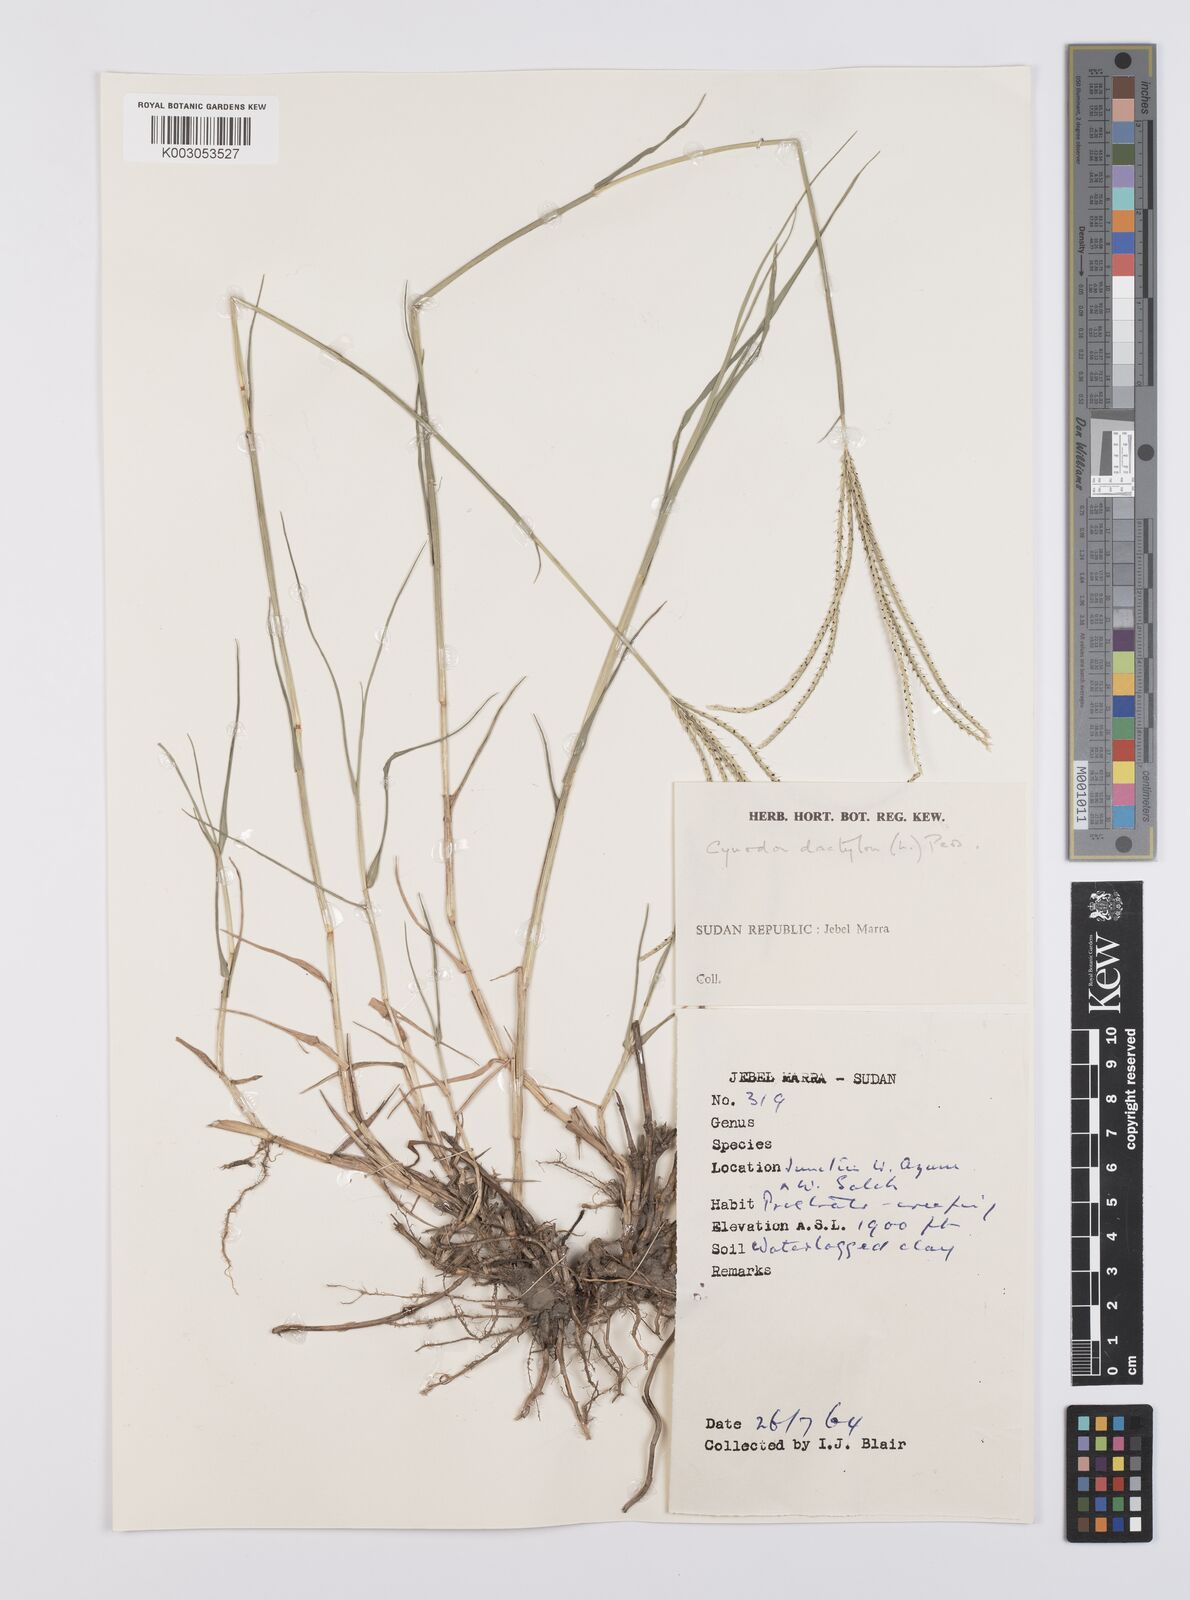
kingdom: Plantae
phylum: Tracheophyta
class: Liliopsida
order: Poales
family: Poaceae
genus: Cynodon
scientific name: Cynodon dactylon
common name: Bermuda grass
